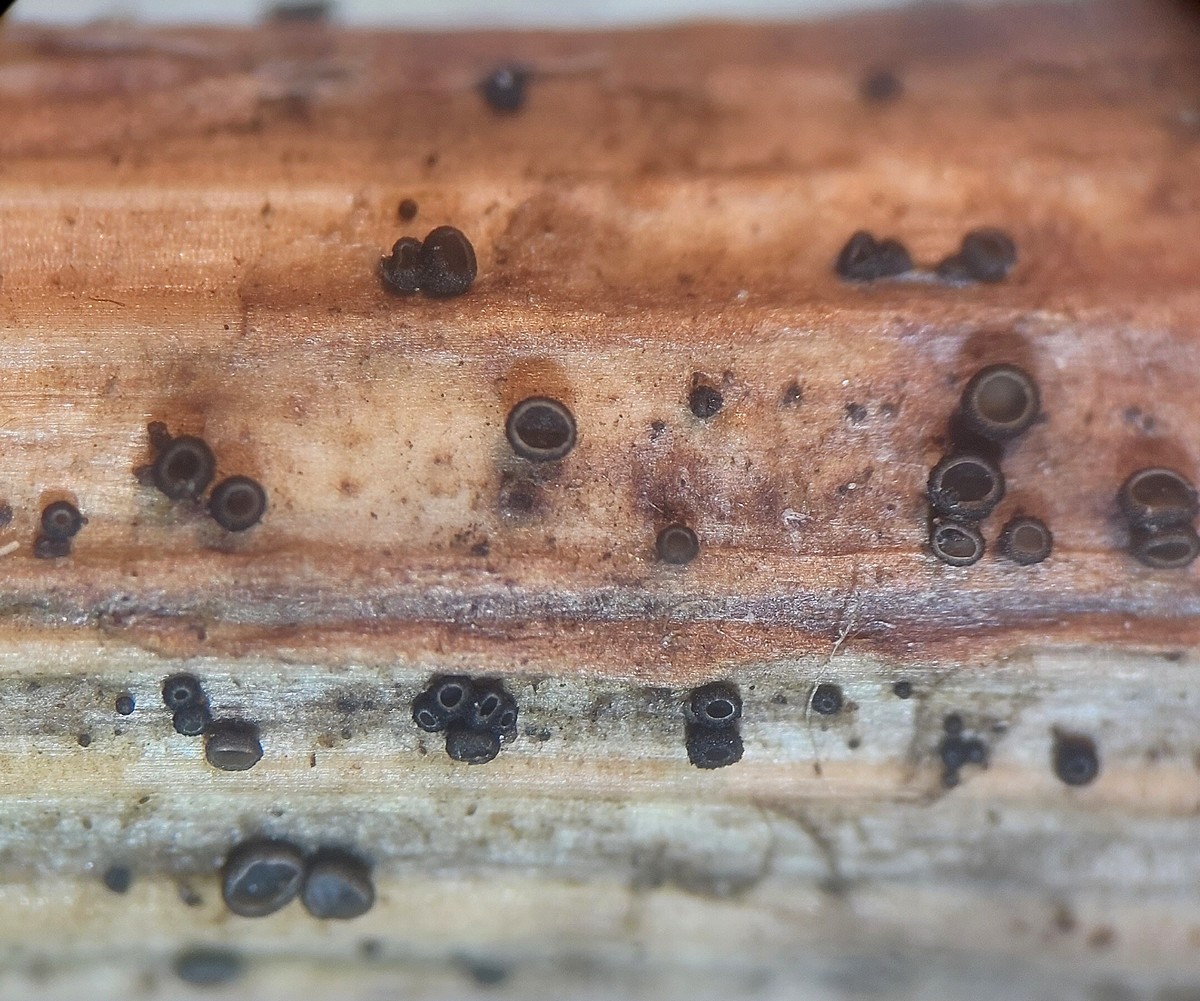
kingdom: Fungi
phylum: Ascomycota
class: Leotiomycetes
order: Helotiales
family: Mollisiaceae
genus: Mollisia
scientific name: Mollisia escharodes
